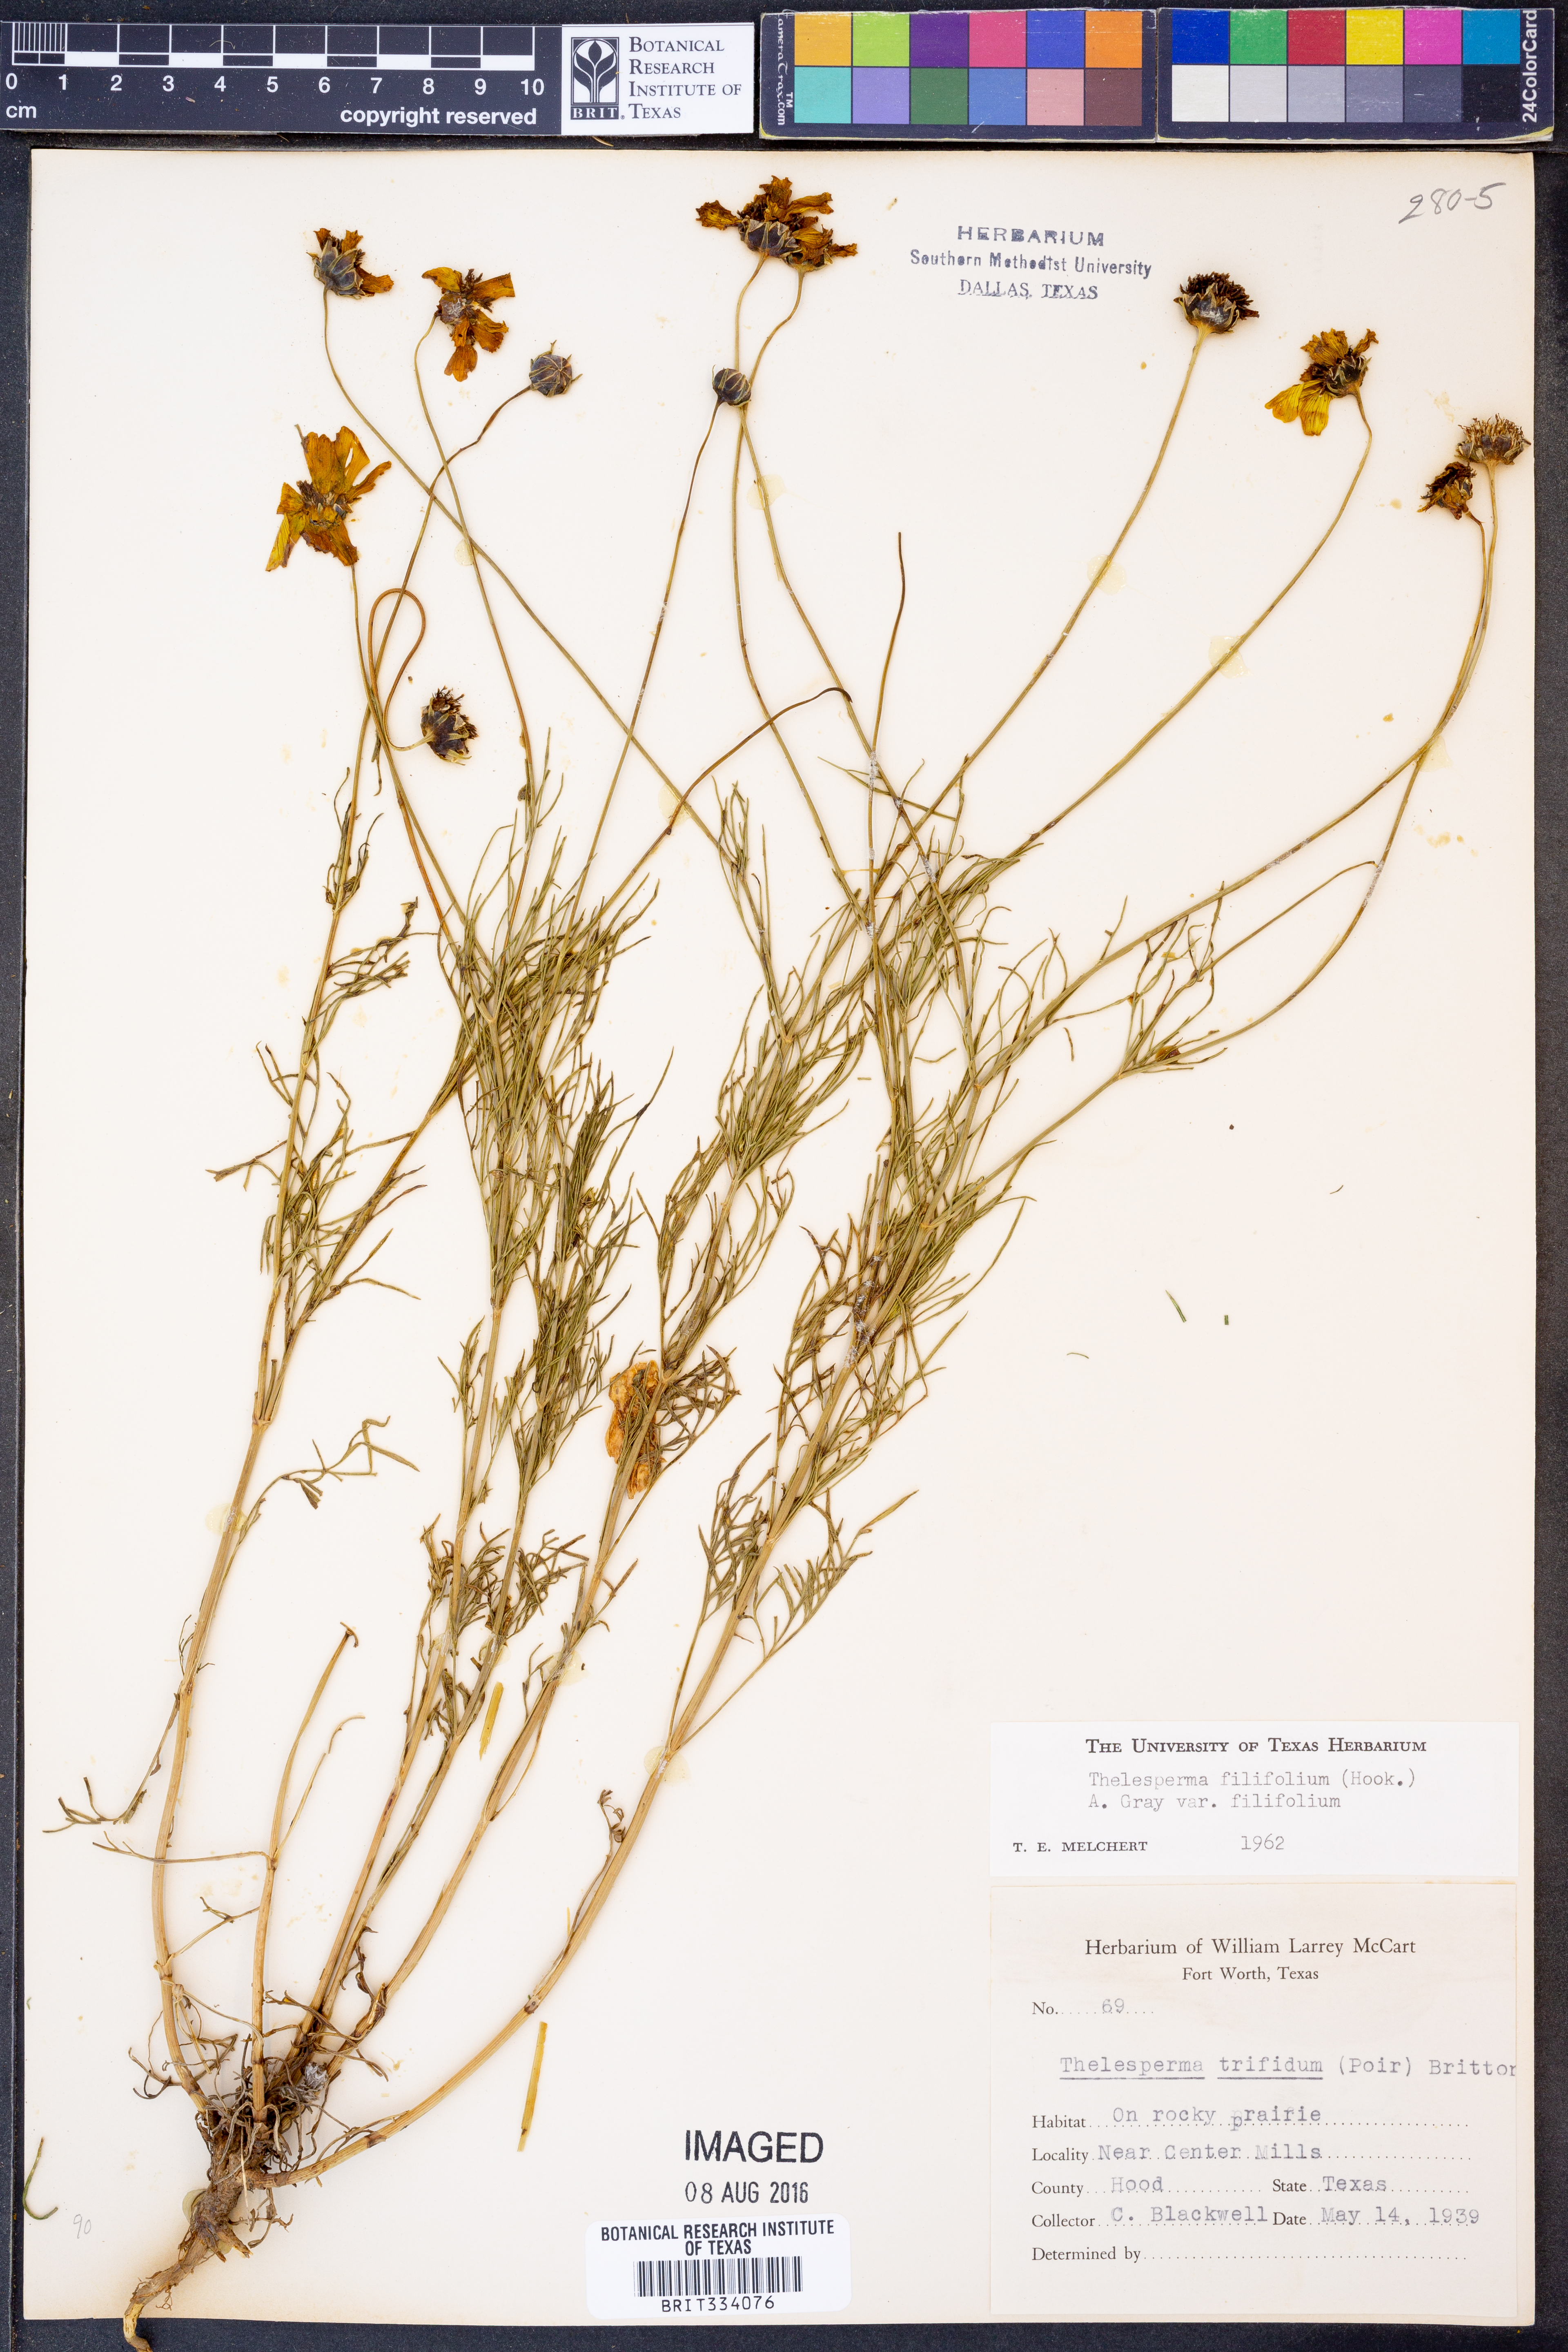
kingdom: Plantae
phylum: Tracheophyta
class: Magnoliopsida
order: Asterales
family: Asteraceae
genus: Thelesperma
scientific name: Thelesperma filifolium
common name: Stiff greenthread
